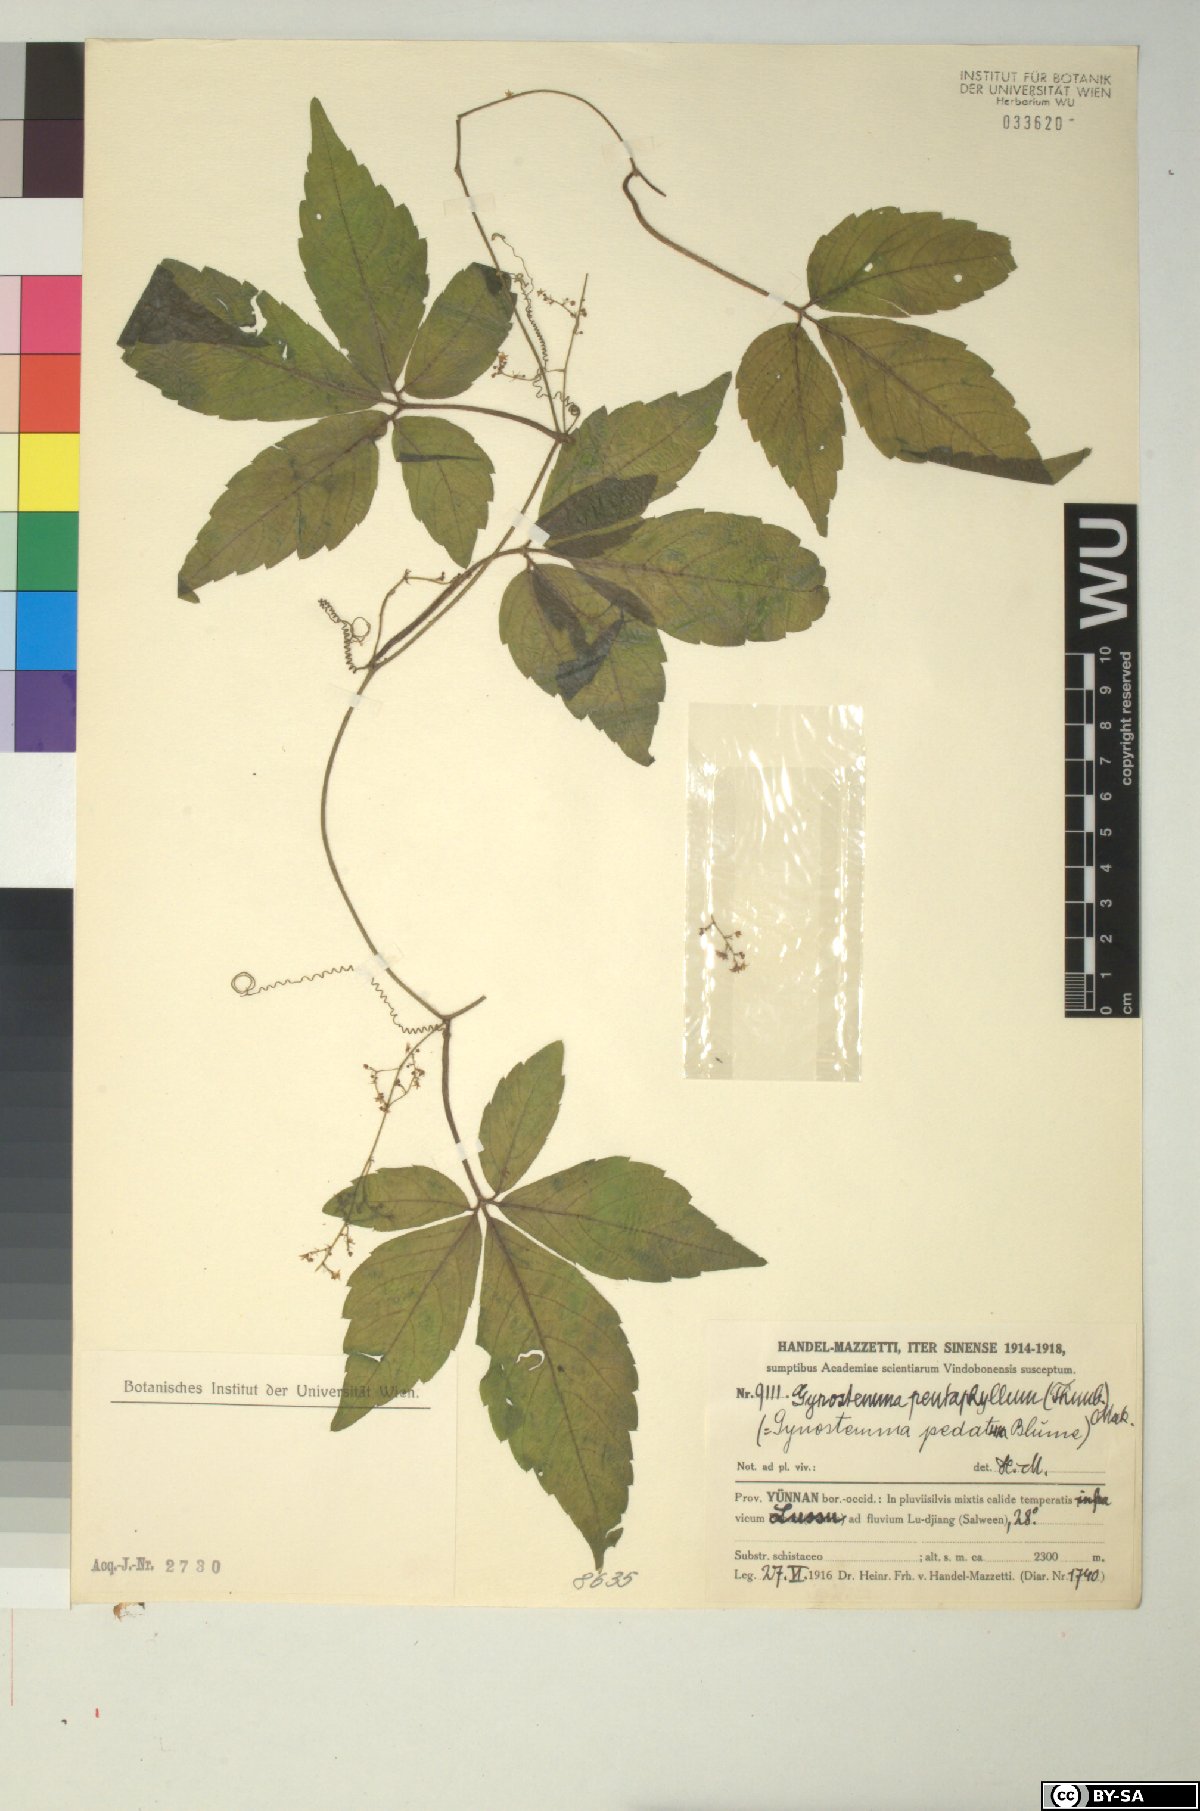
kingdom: Plantae
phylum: Tracheophyta
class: Magnoliopsida
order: Cucurbitales
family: Cucurbitaceae
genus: Gynostemma
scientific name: Gynostemma pentaphyllum
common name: Gynostemma
